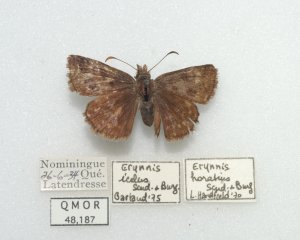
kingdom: Animalia
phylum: Arthropoda
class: Insecta
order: Lepidoptera
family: Hesperiidae
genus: Erynnis
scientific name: Erynnis icelus
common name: Dreamy Duskywing
